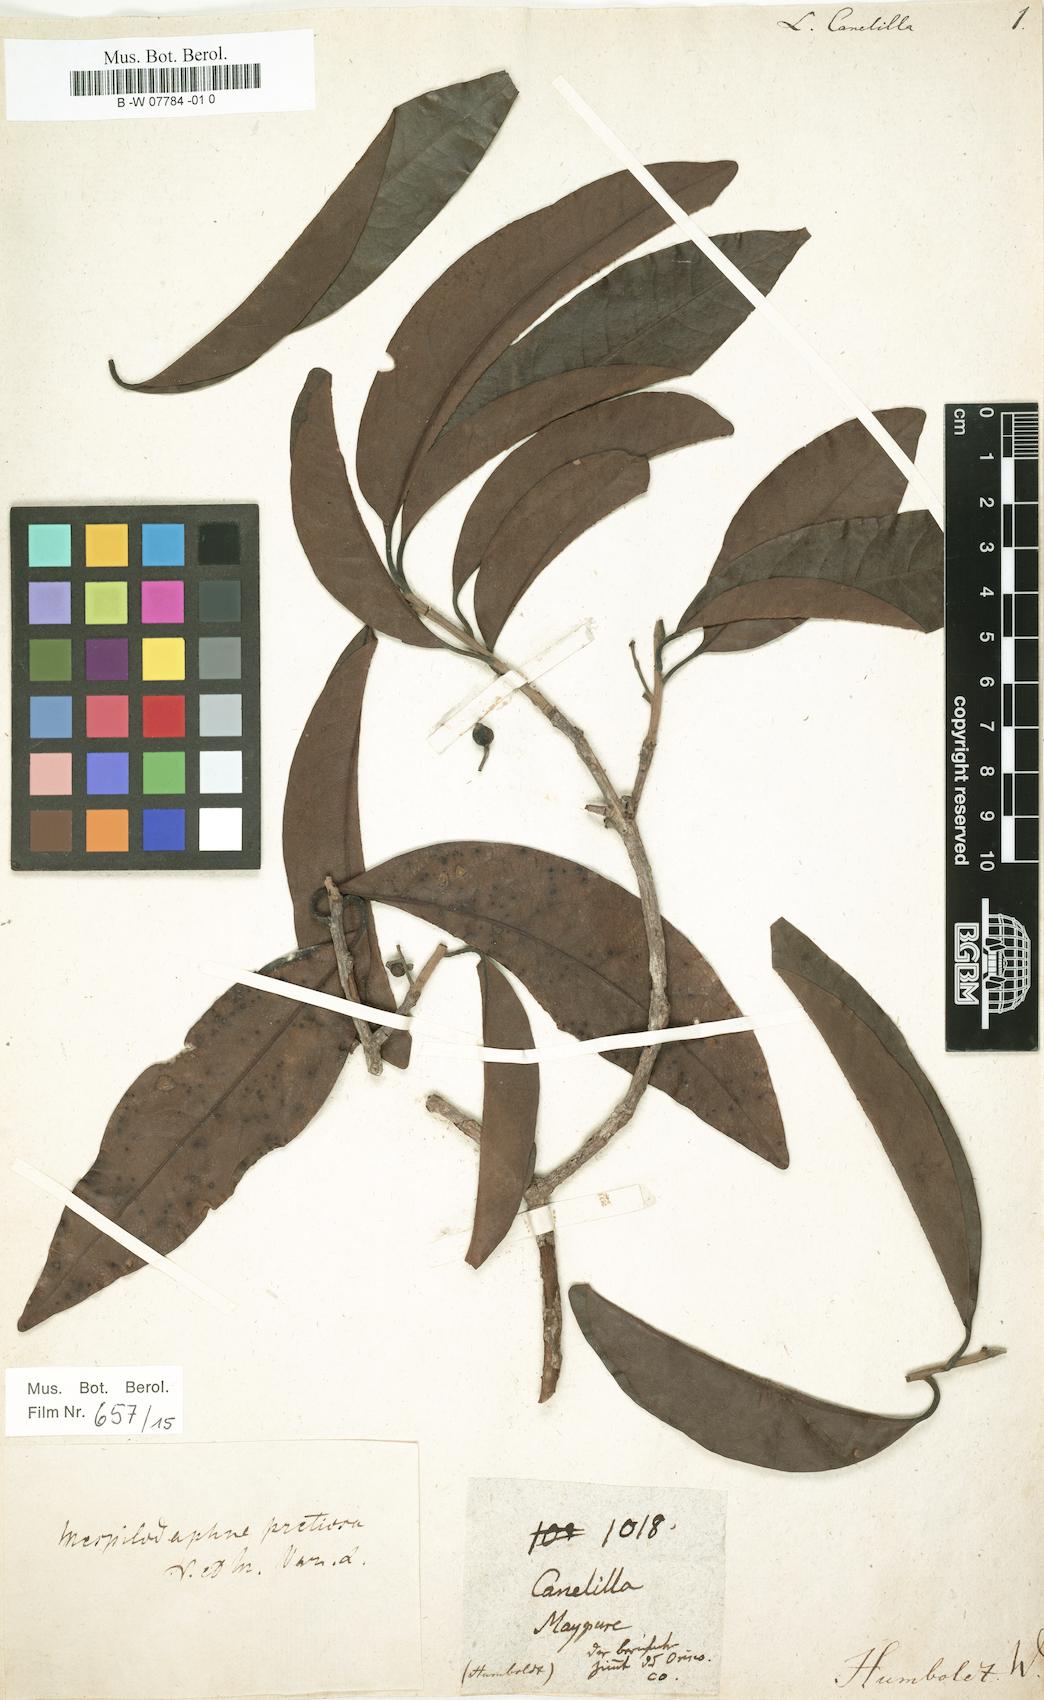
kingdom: Plantae
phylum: Tracheophyta
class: Magnoliopsida
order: Laurales
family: Lauraceae
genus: Aniba
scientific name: Aniba canelilla
